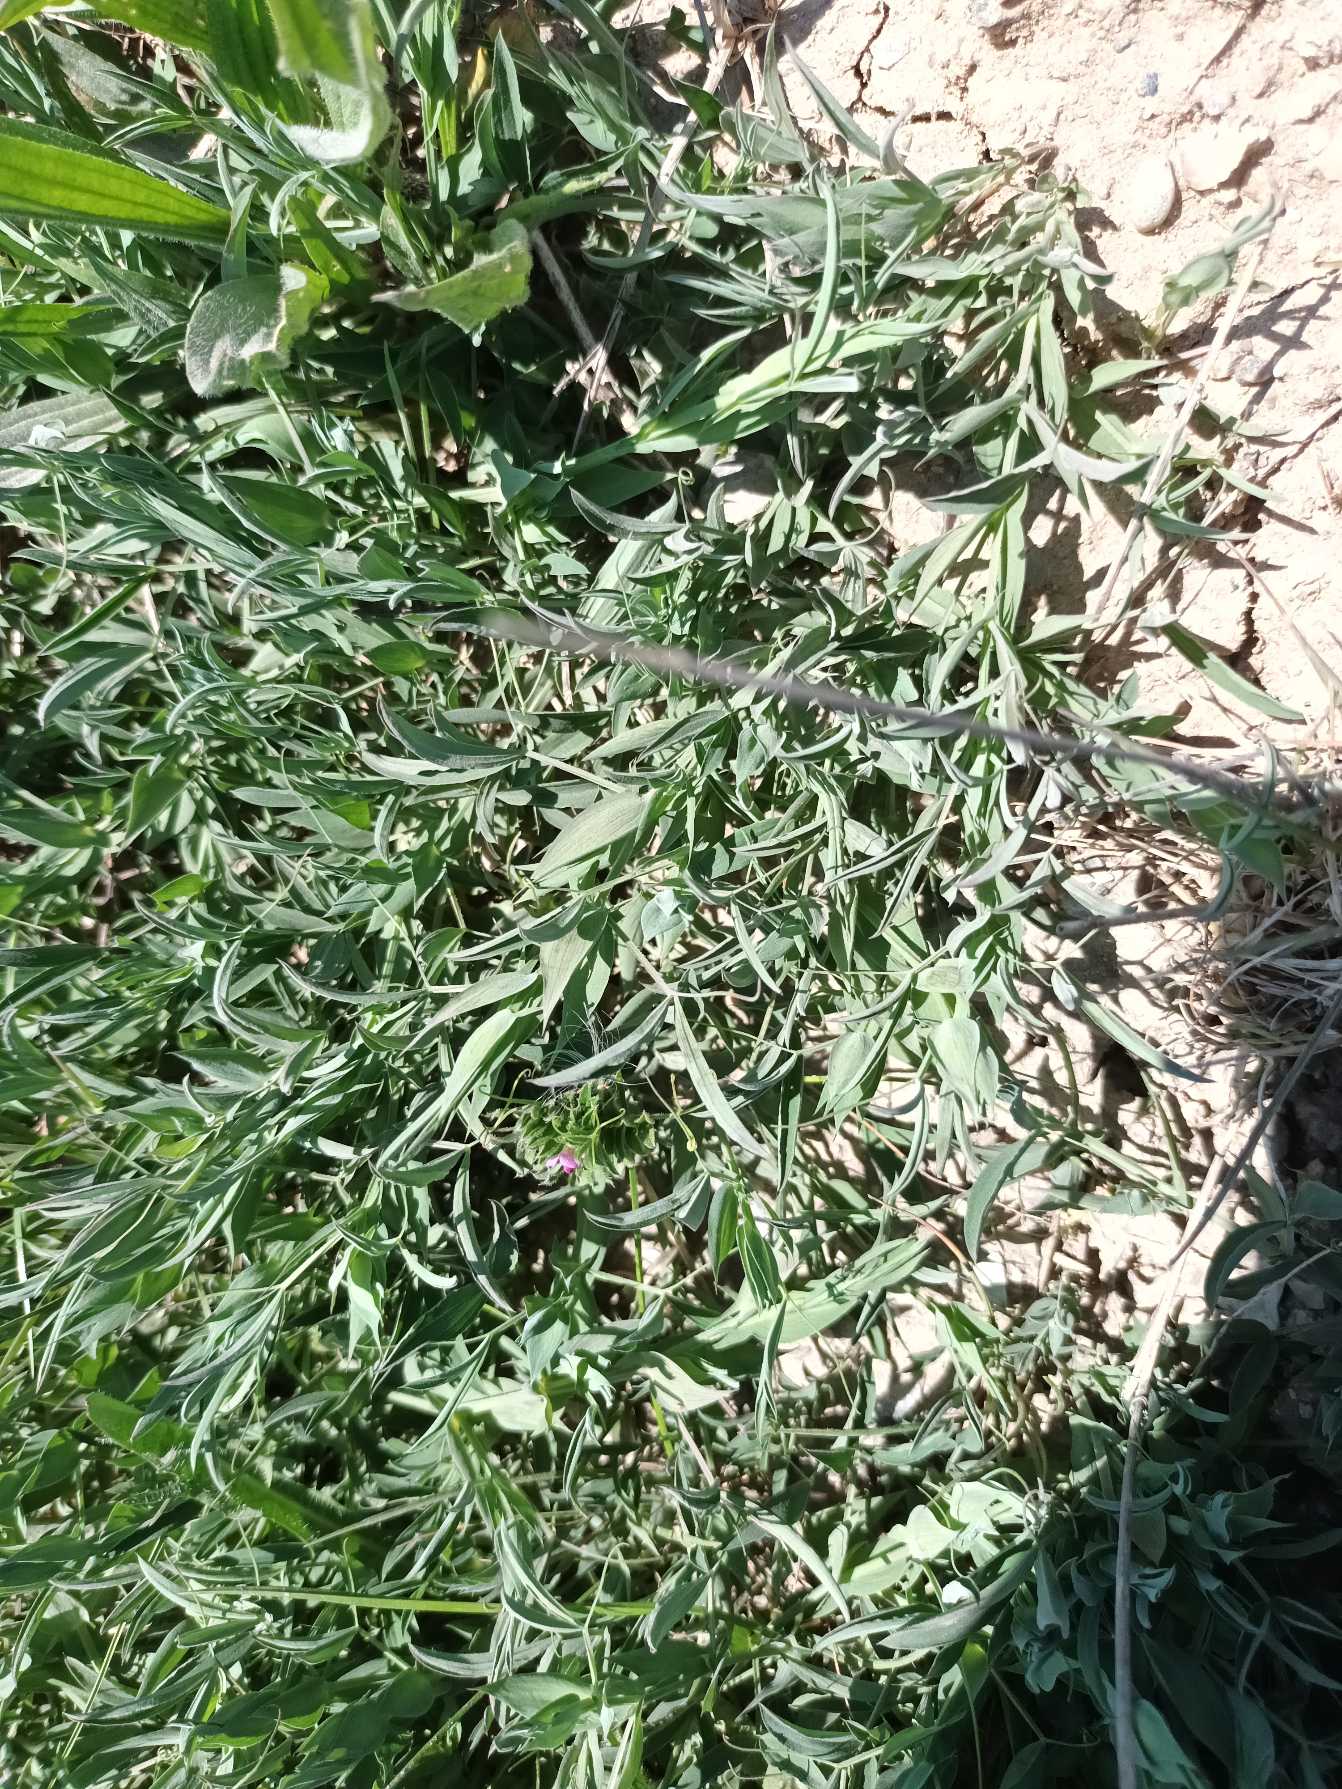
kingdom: Plantae
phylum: Tracheophyta
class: Magnoliopsida
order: Fabales
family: Fabaceae
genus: Lathyrus
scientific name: Lathyrus pratensis
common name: Gul fladbælg
